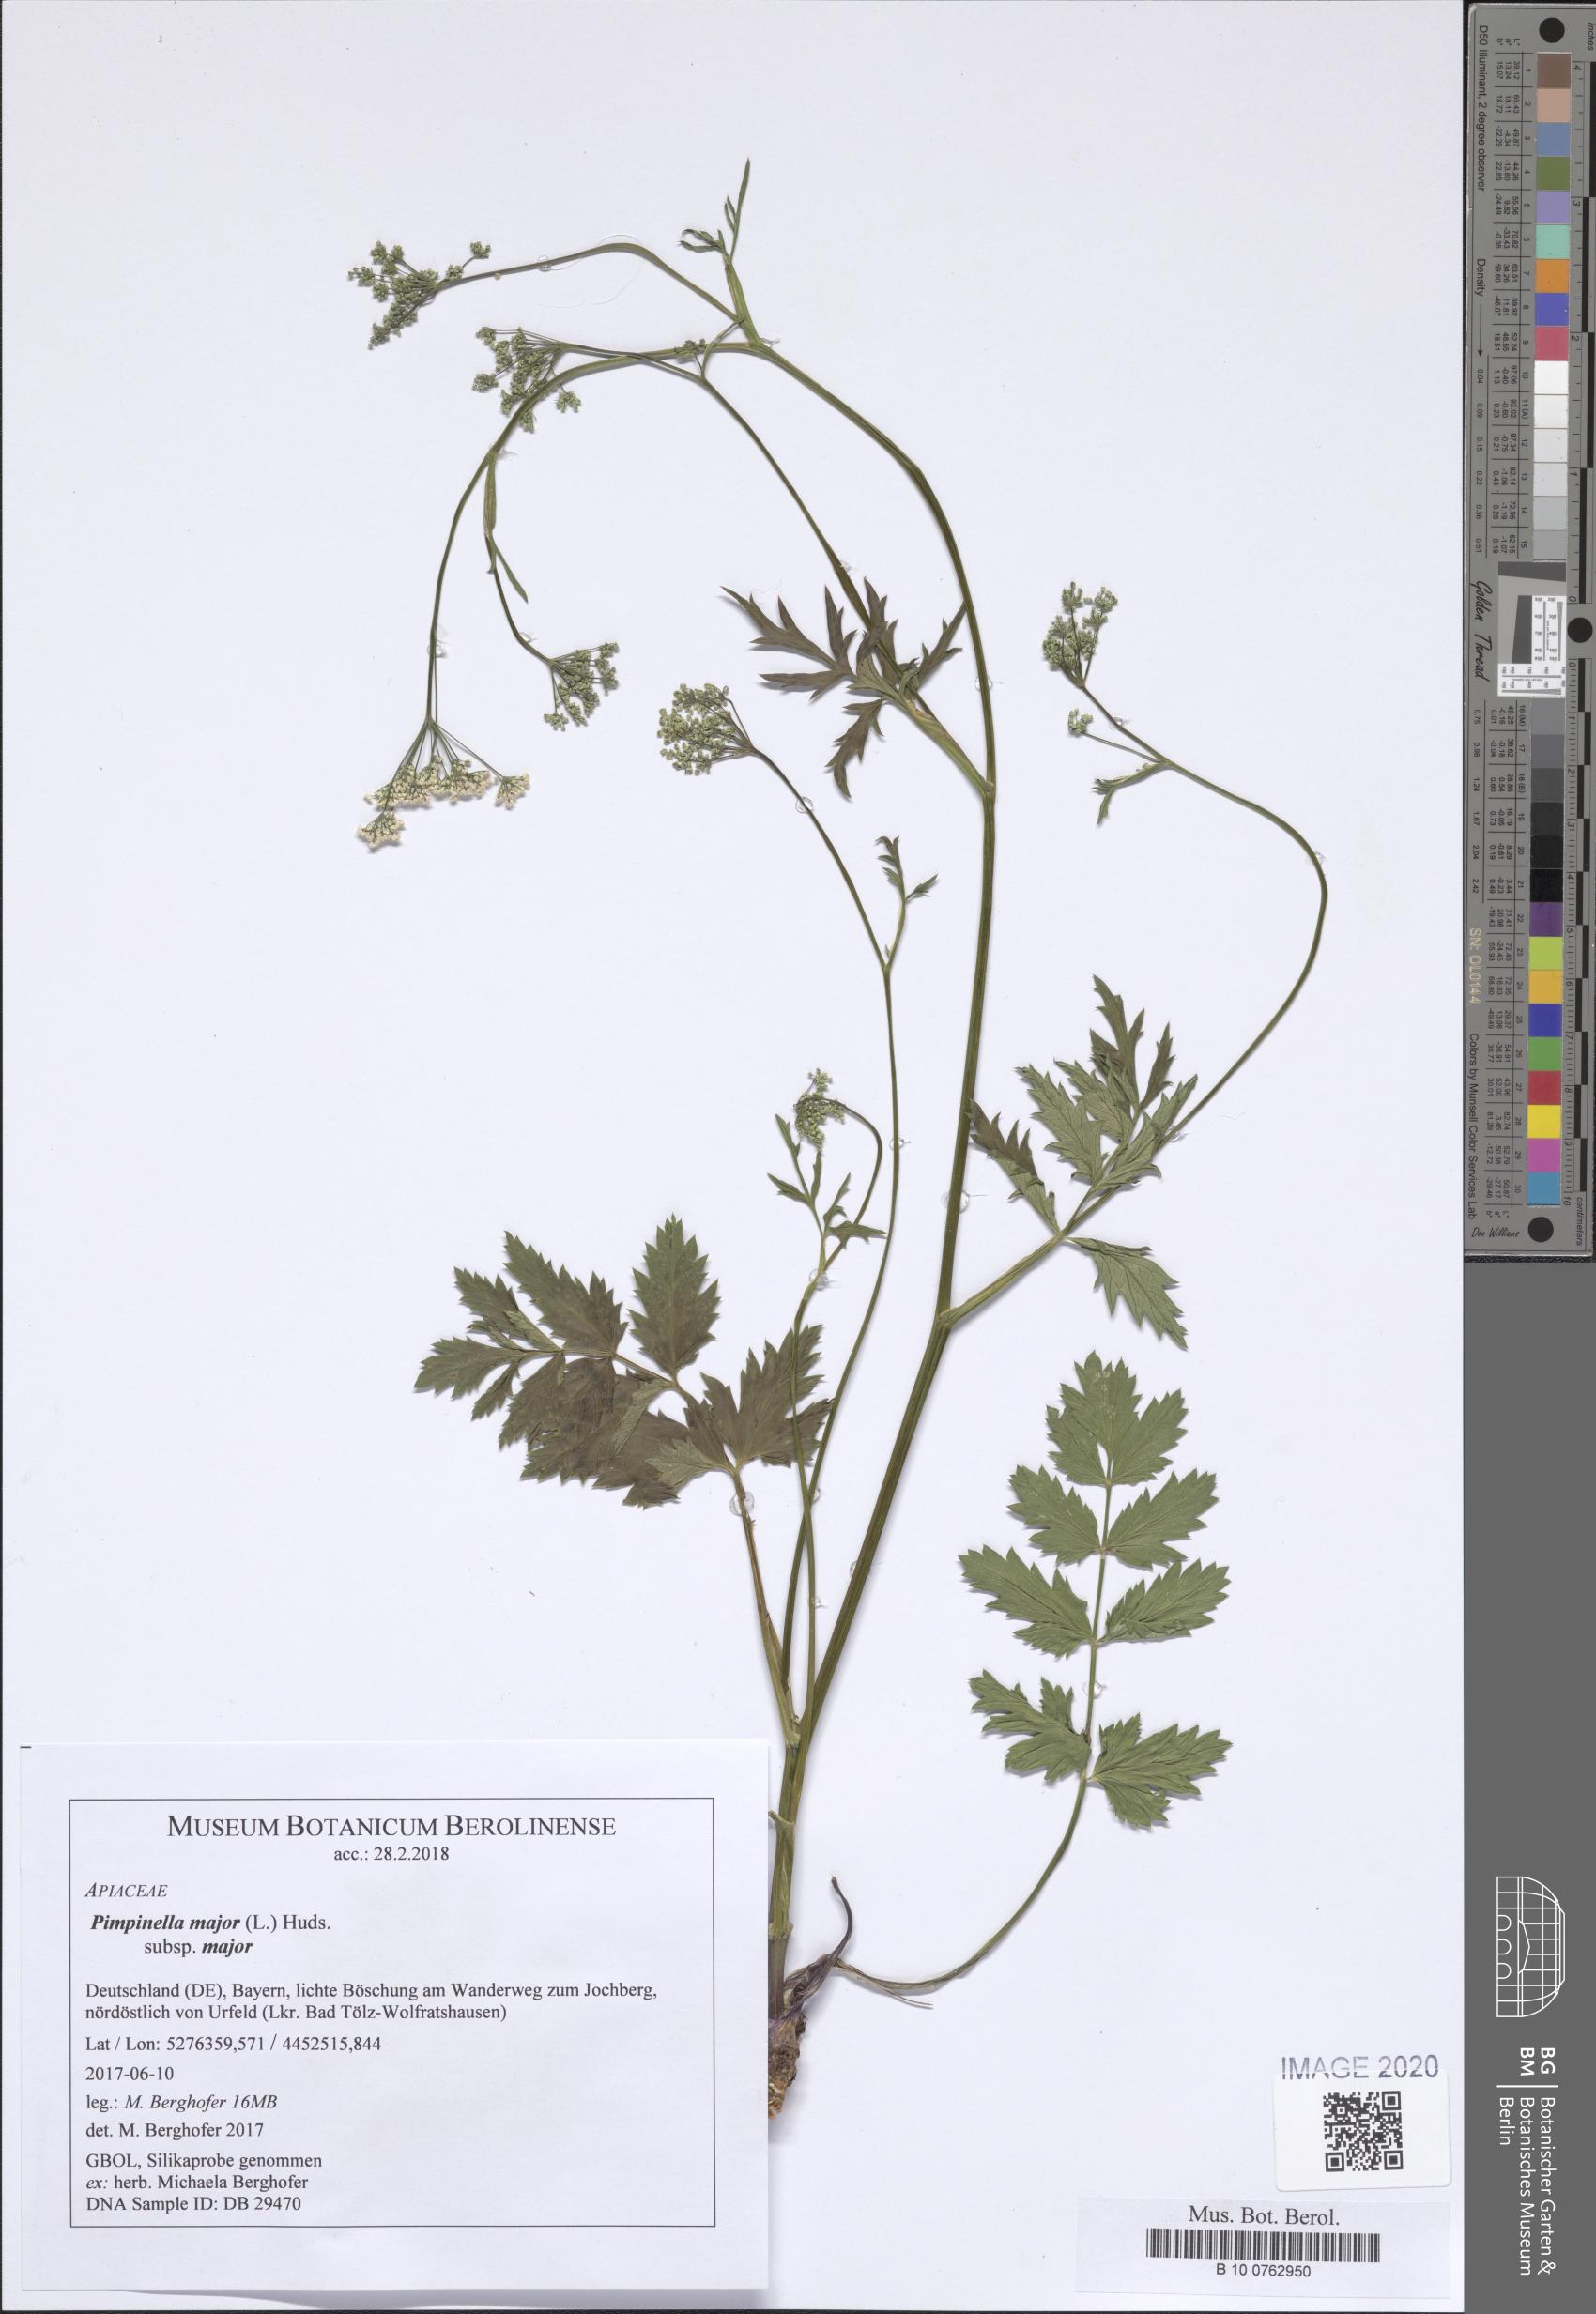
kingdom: Plantae
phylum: Tracheophyta
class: Magnoliopsida
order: Apiales
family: Apiaceae
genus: Pimpinella
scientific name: Pimpinella major
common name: Greater burnet-saxifrage
